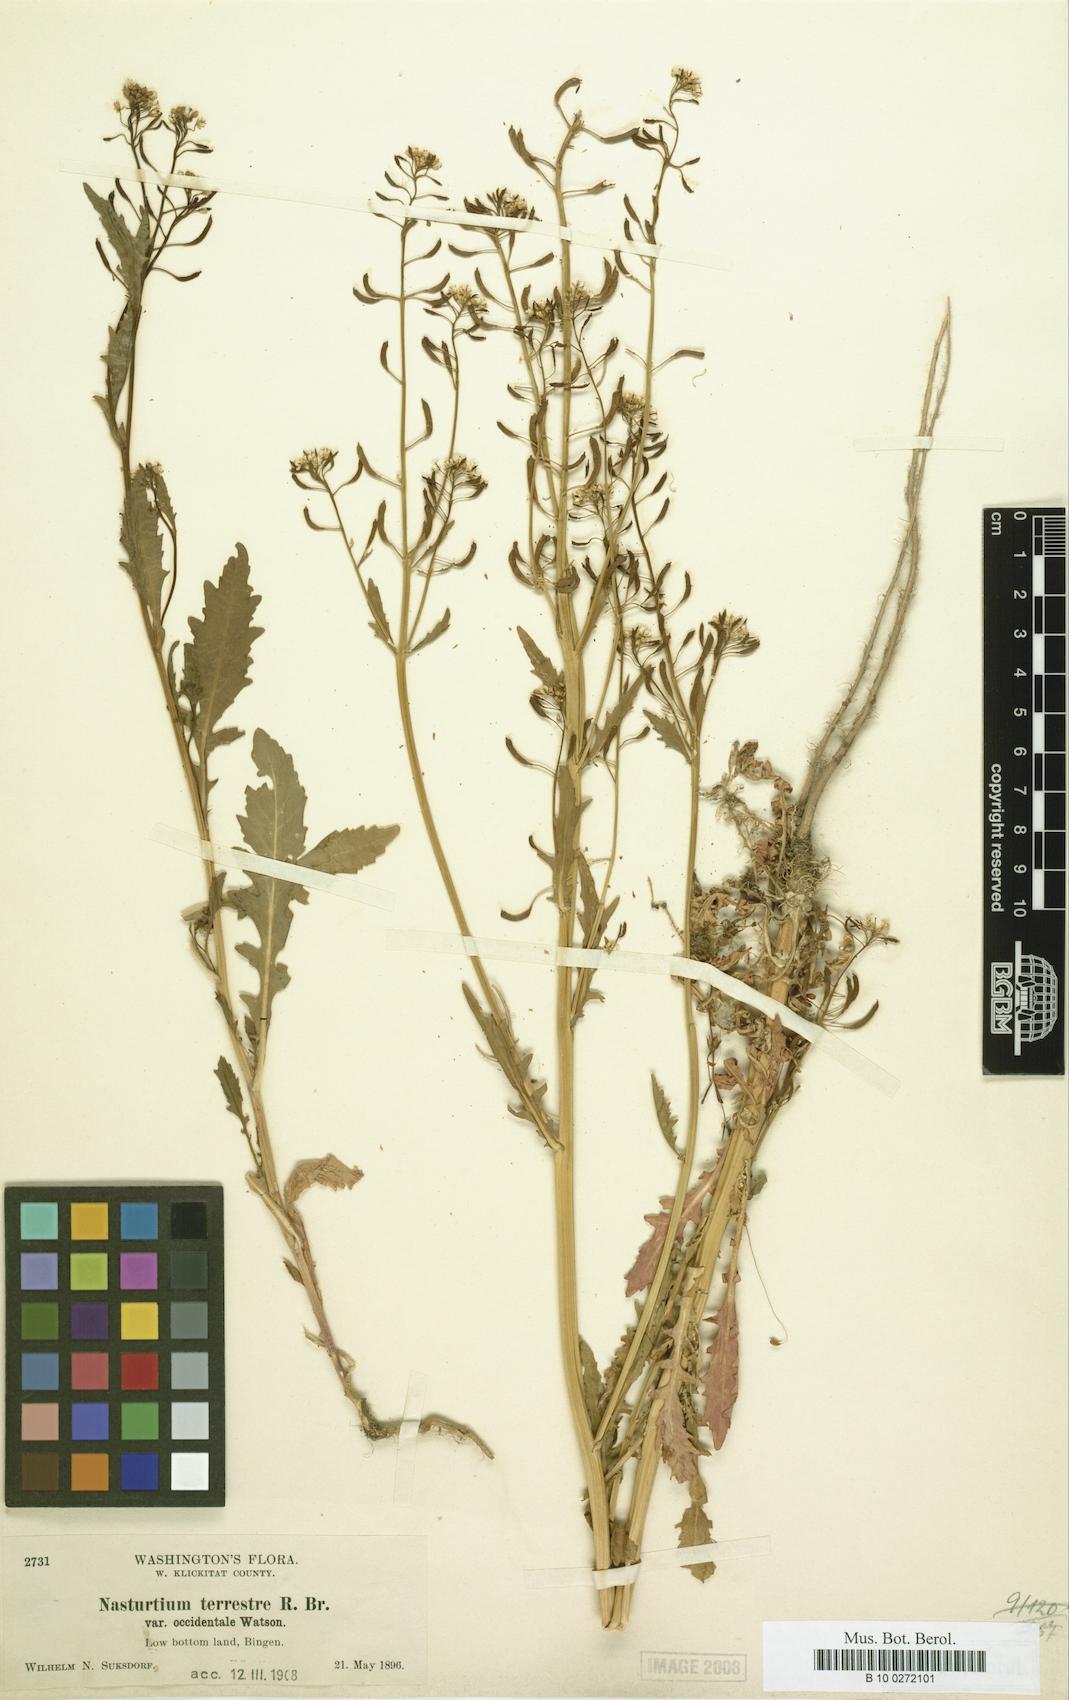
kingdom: Plantae
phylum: Tracheophyta
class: Magnoliopsida
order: Brassicales
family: Brassicaceae
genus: Rorippa
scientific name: Rorippa palustris
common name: Marsh yellow-cress
